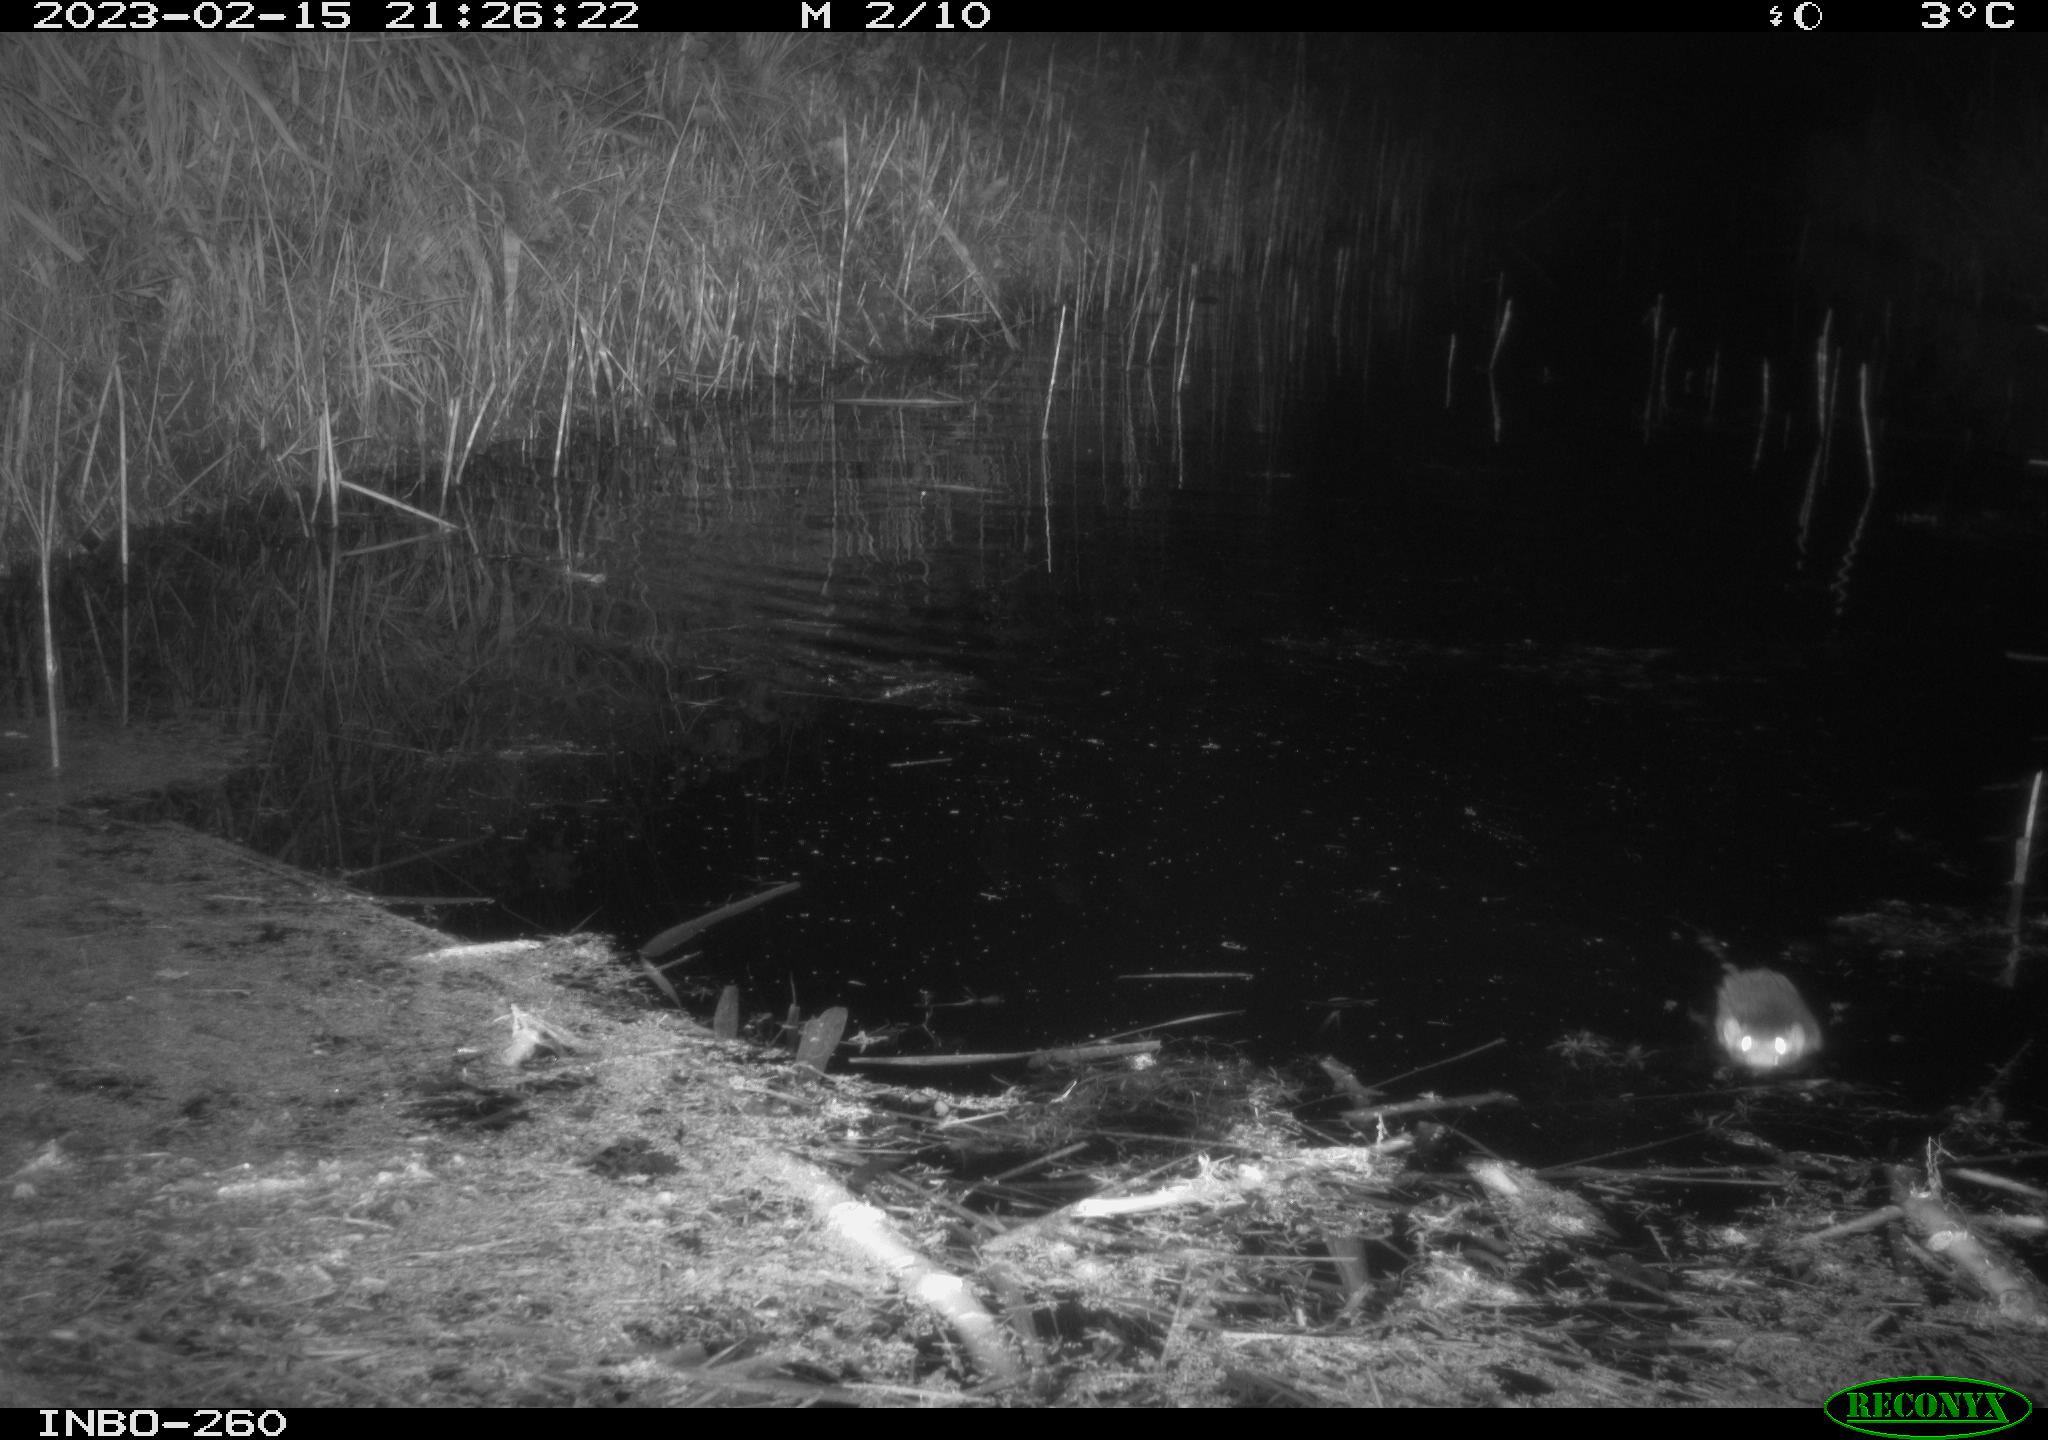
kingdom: Animalia
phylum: Chordata
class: Mammalia
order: Rodentia
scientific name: Rodentia
